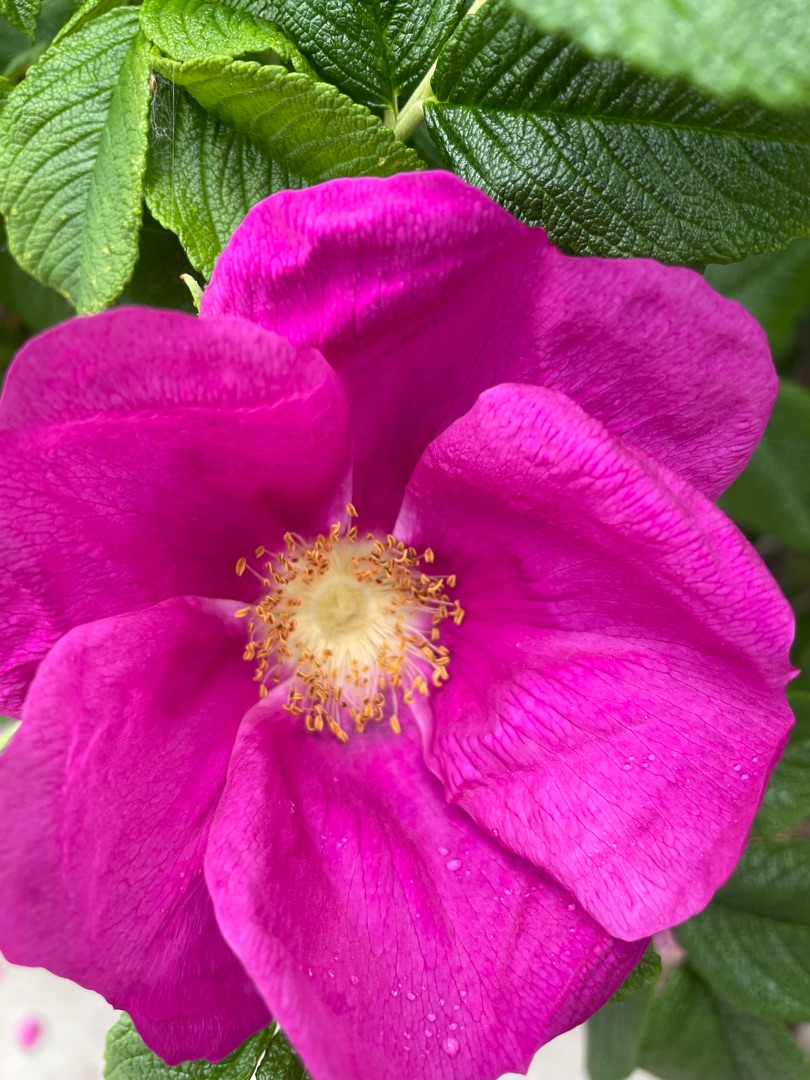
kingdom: Plantae
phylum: Tracheophyta
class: Magnoliopsida
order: Rosales
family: Rosaceae
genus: Rosa
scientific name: Rosa rugosa
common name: Rynket rose
